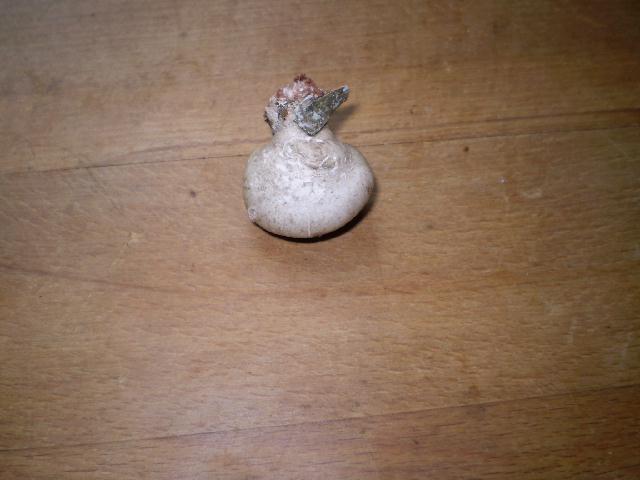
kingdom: Fungi
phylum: Basidiomycota
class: Agaricomycetes
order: Polyporales
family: Fomitopsidaceae
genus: Fomitopsis
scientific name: Fomitopsis betulina
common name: birkeporesvamp
